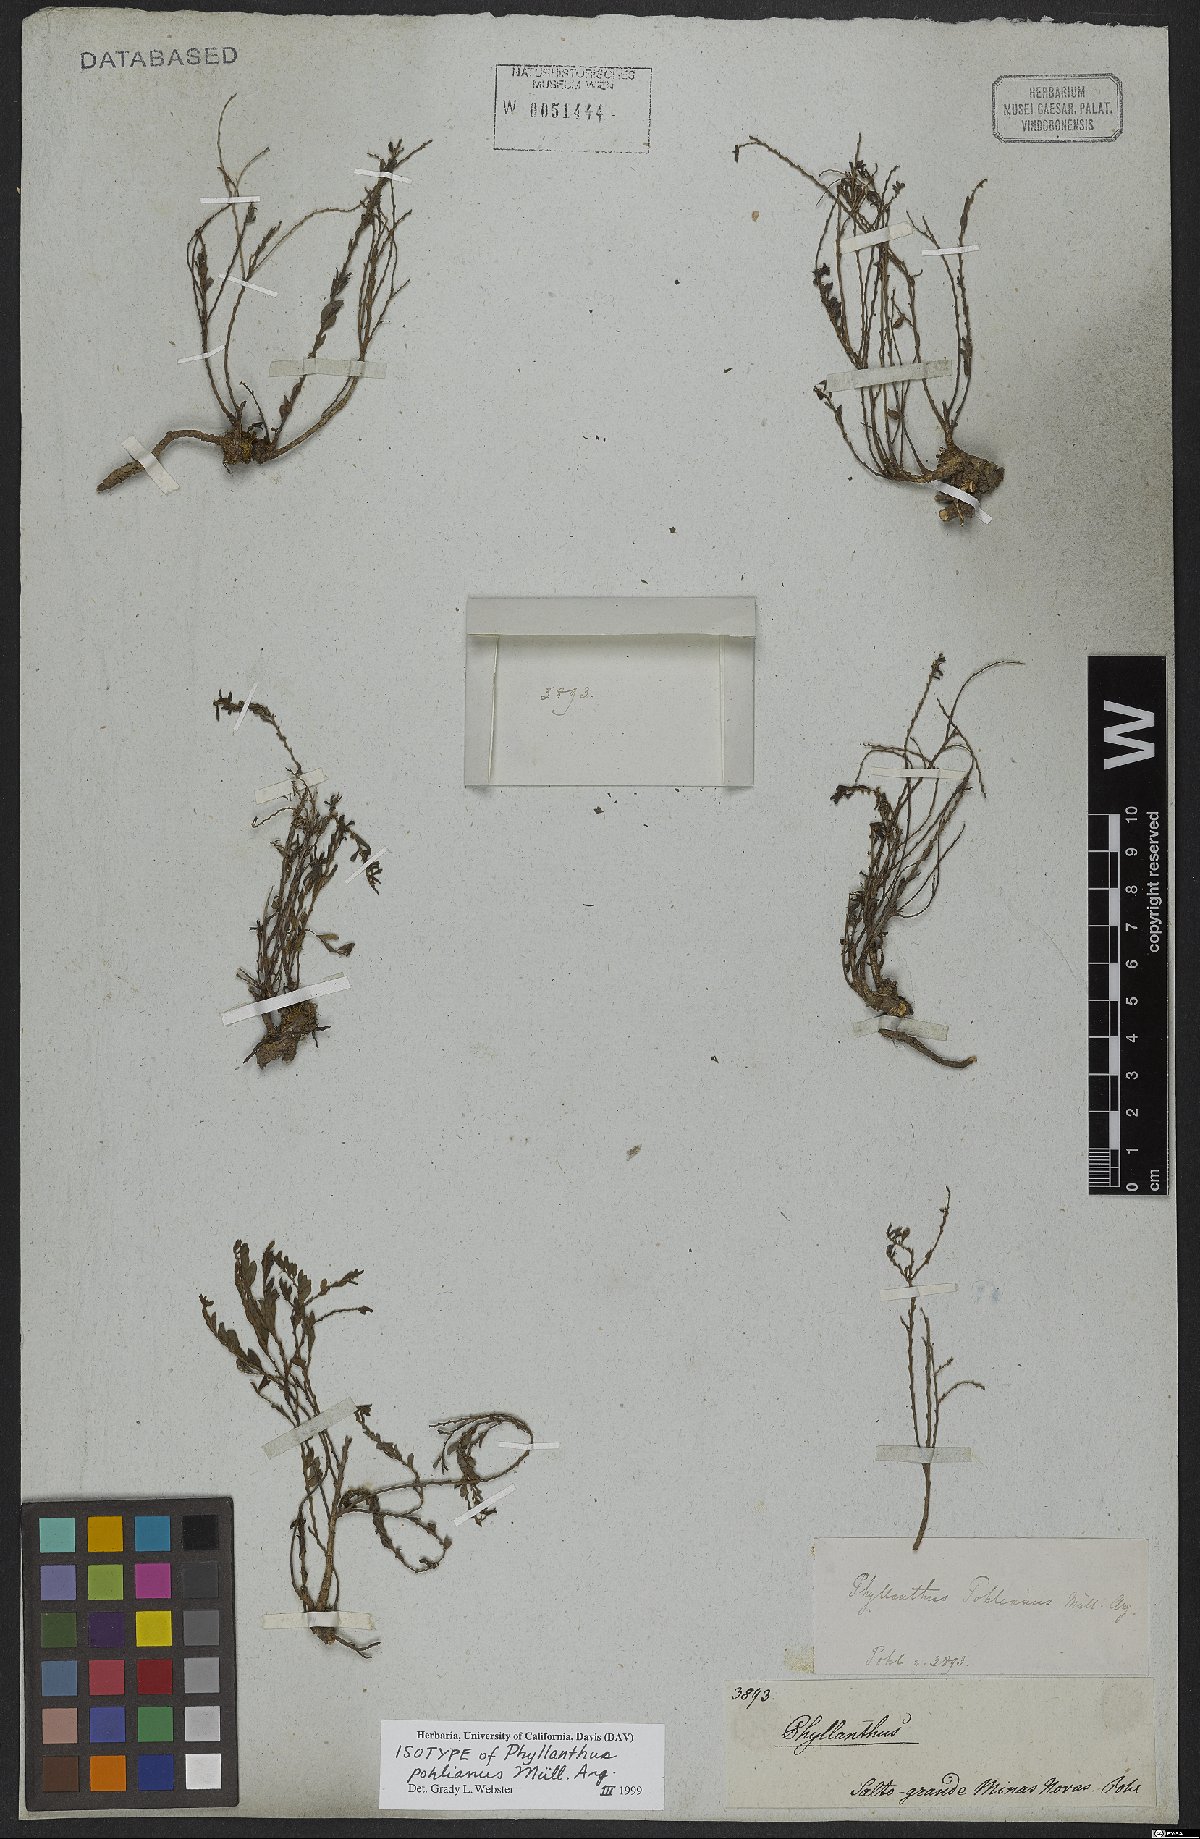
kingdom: Plantae
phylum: Tracheophyta
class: Magnoliopsida
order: Malpighiales
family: Phyllanthaceae
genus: Phyllanthus
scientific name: Phyllanthus pohlianus
